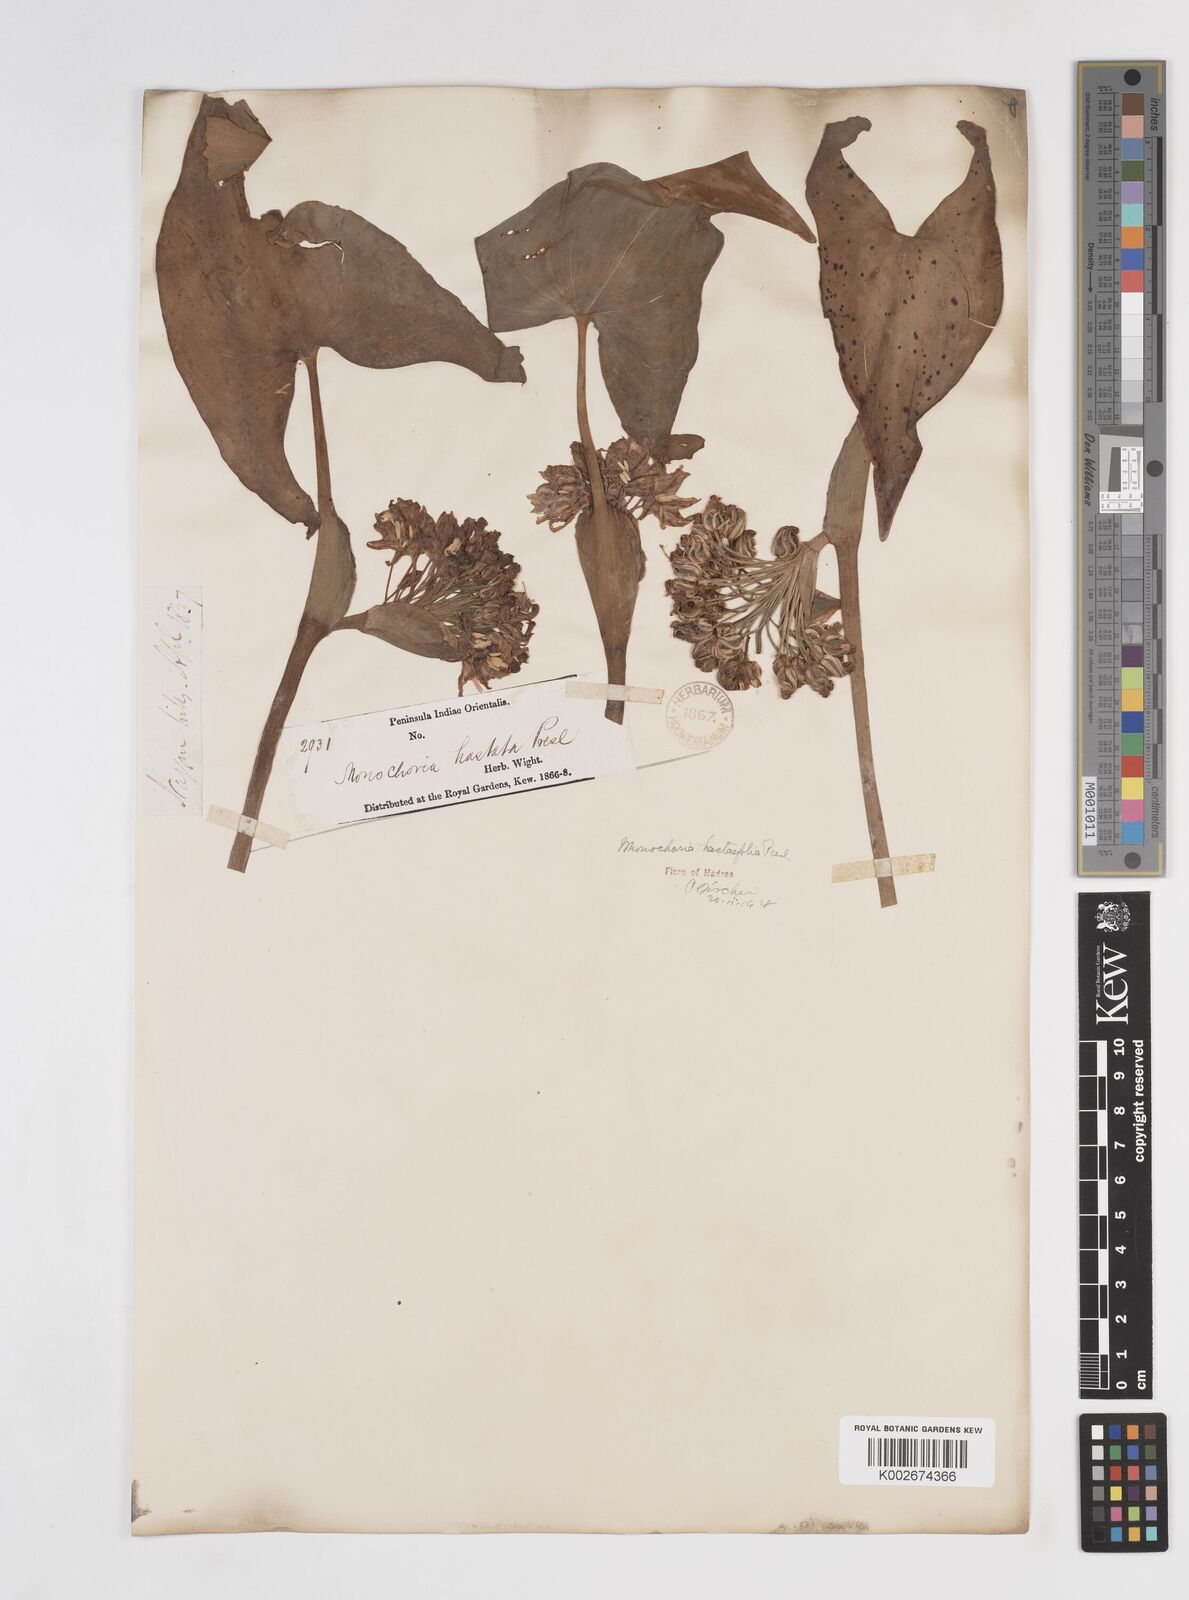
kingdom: Plantae
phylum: Tracheophyta
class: Liliopsida
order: Commelinales
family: Pontederiaceae
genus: Pontederia
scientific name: Pontederia hastata
